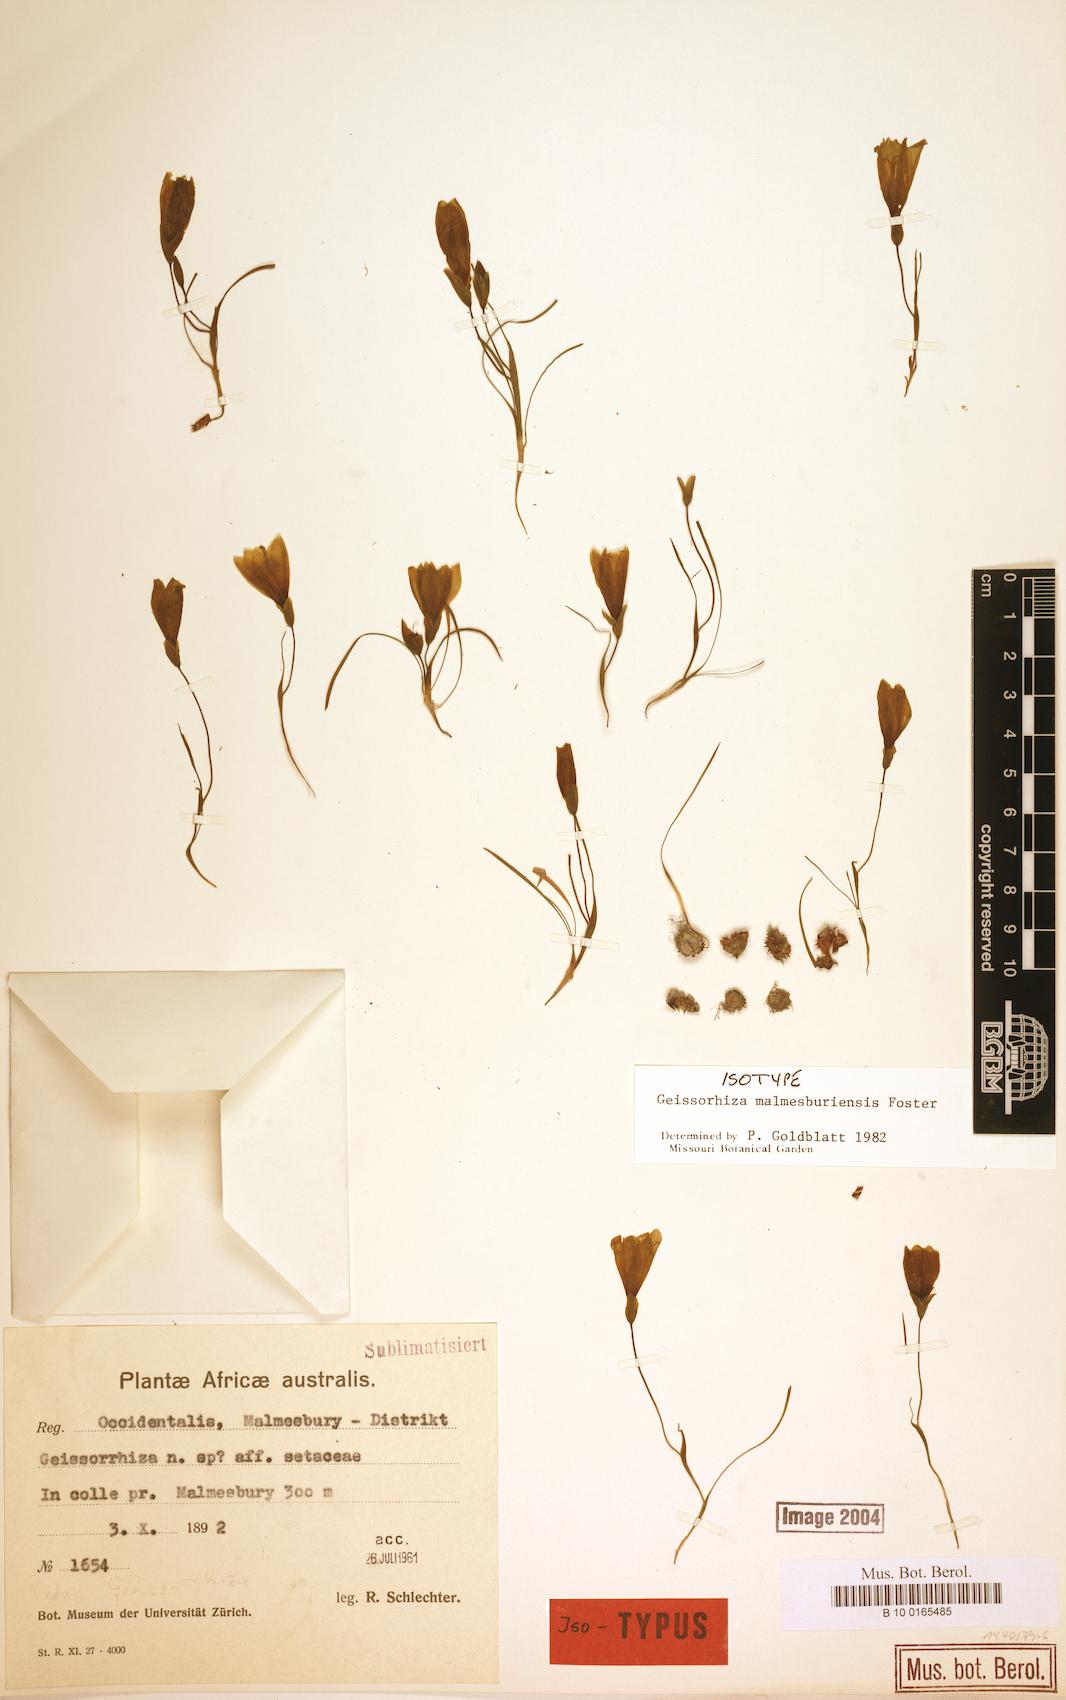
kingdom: Plantae
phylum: Tracheophyta
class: Liliopsida
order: Asparagales
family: Iridaceae
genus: Geissorhiza
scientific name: Geissorhiza malmesburiensis
